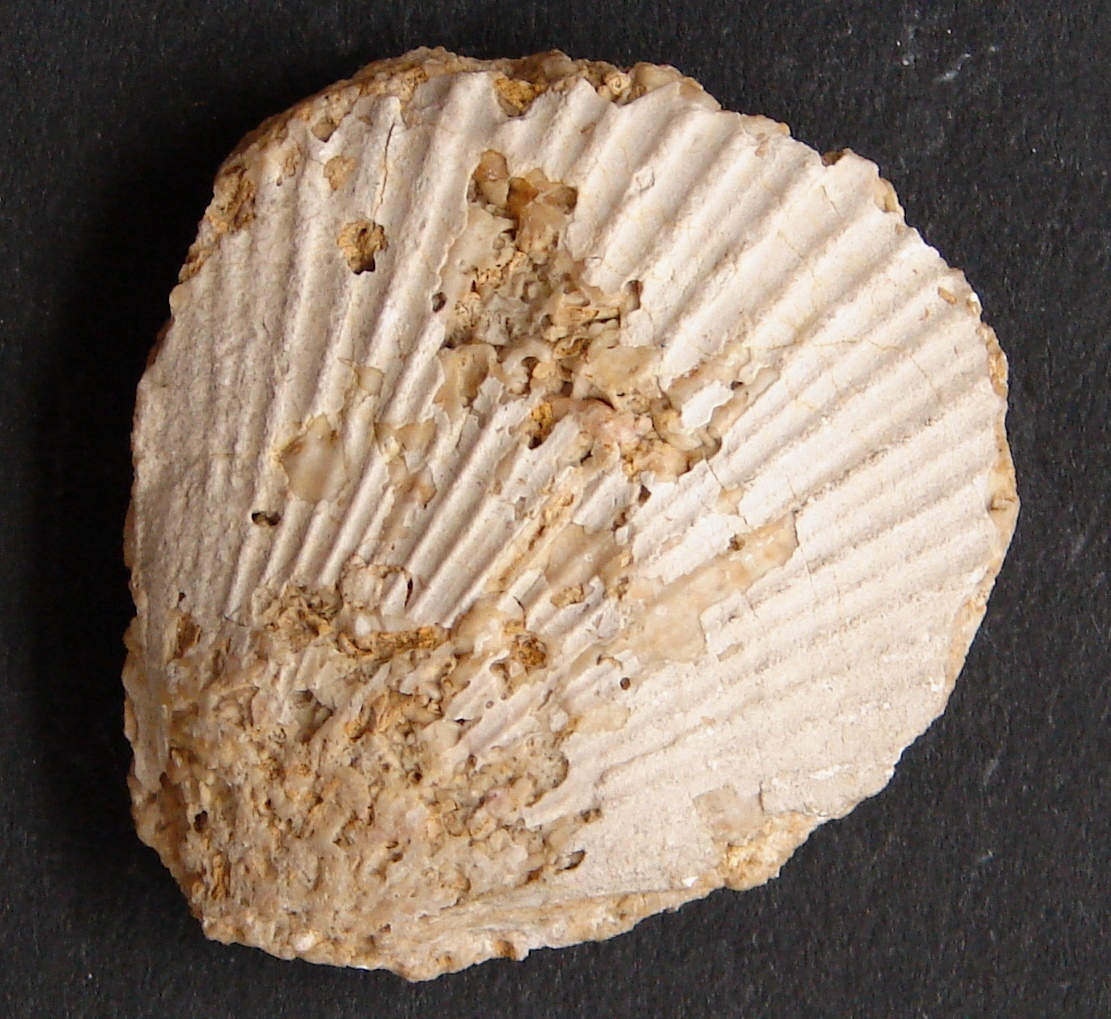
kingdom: Animalia
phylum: Mollusca
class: Bivalvia
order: Pectinida
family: Pectinidae
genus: Chlamys
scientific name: Chlamys textoria
